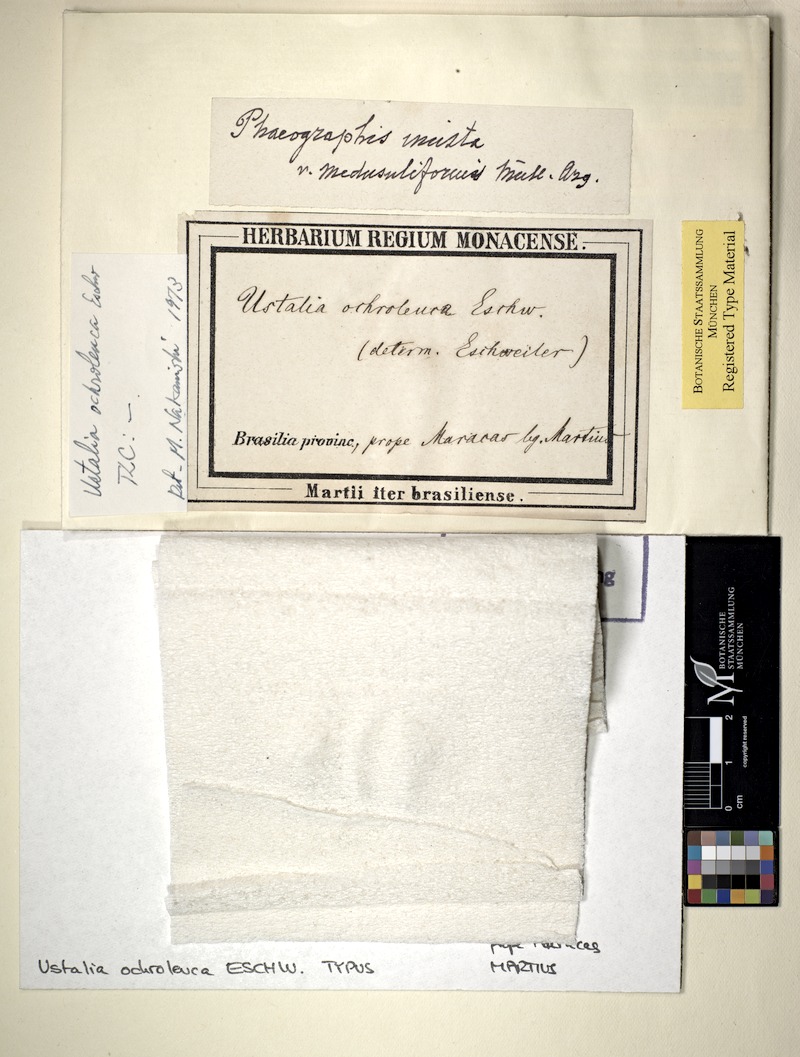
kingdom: Fungi
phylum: Ascomycota
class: Lecanoromycetes
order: Ostropales
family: Graphidaceae
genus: Phaeographis
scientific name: Phaeographis inusta
